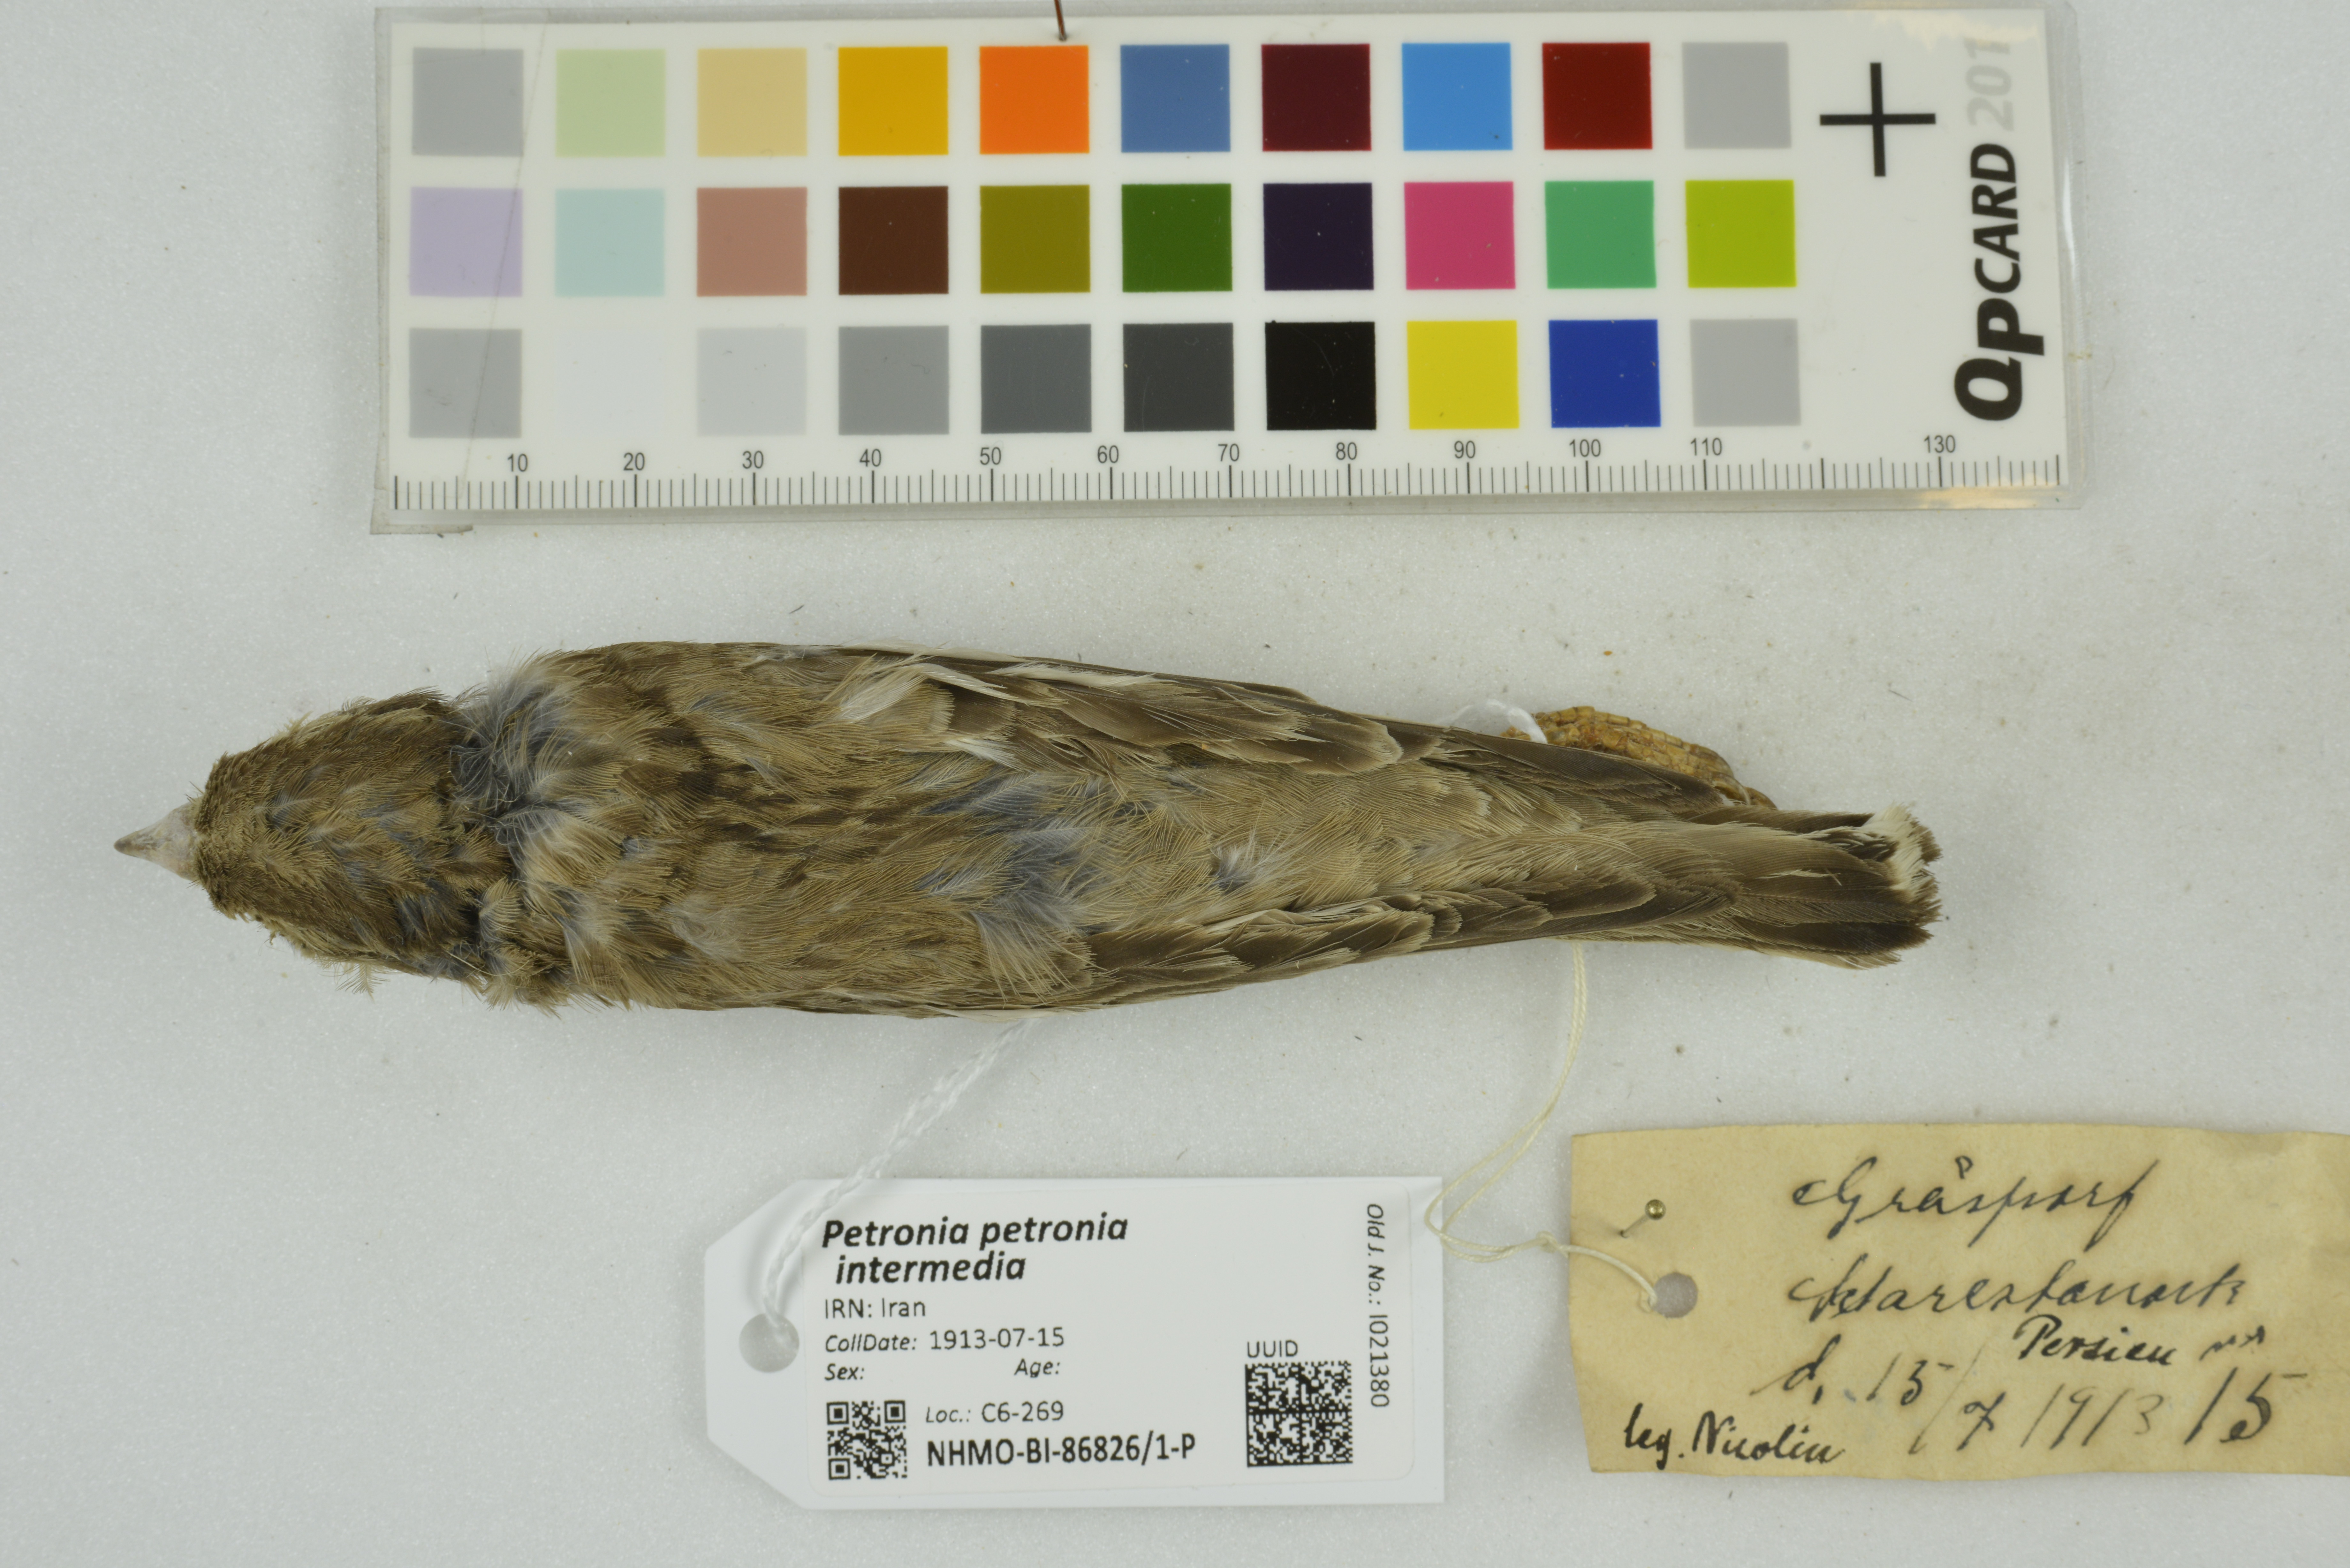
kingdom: Animalia
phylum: Chordata
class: Aves
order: Passeriformes
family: Passeridae
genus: Petronia
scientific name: Petronia petronia
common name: Rock sparrow
